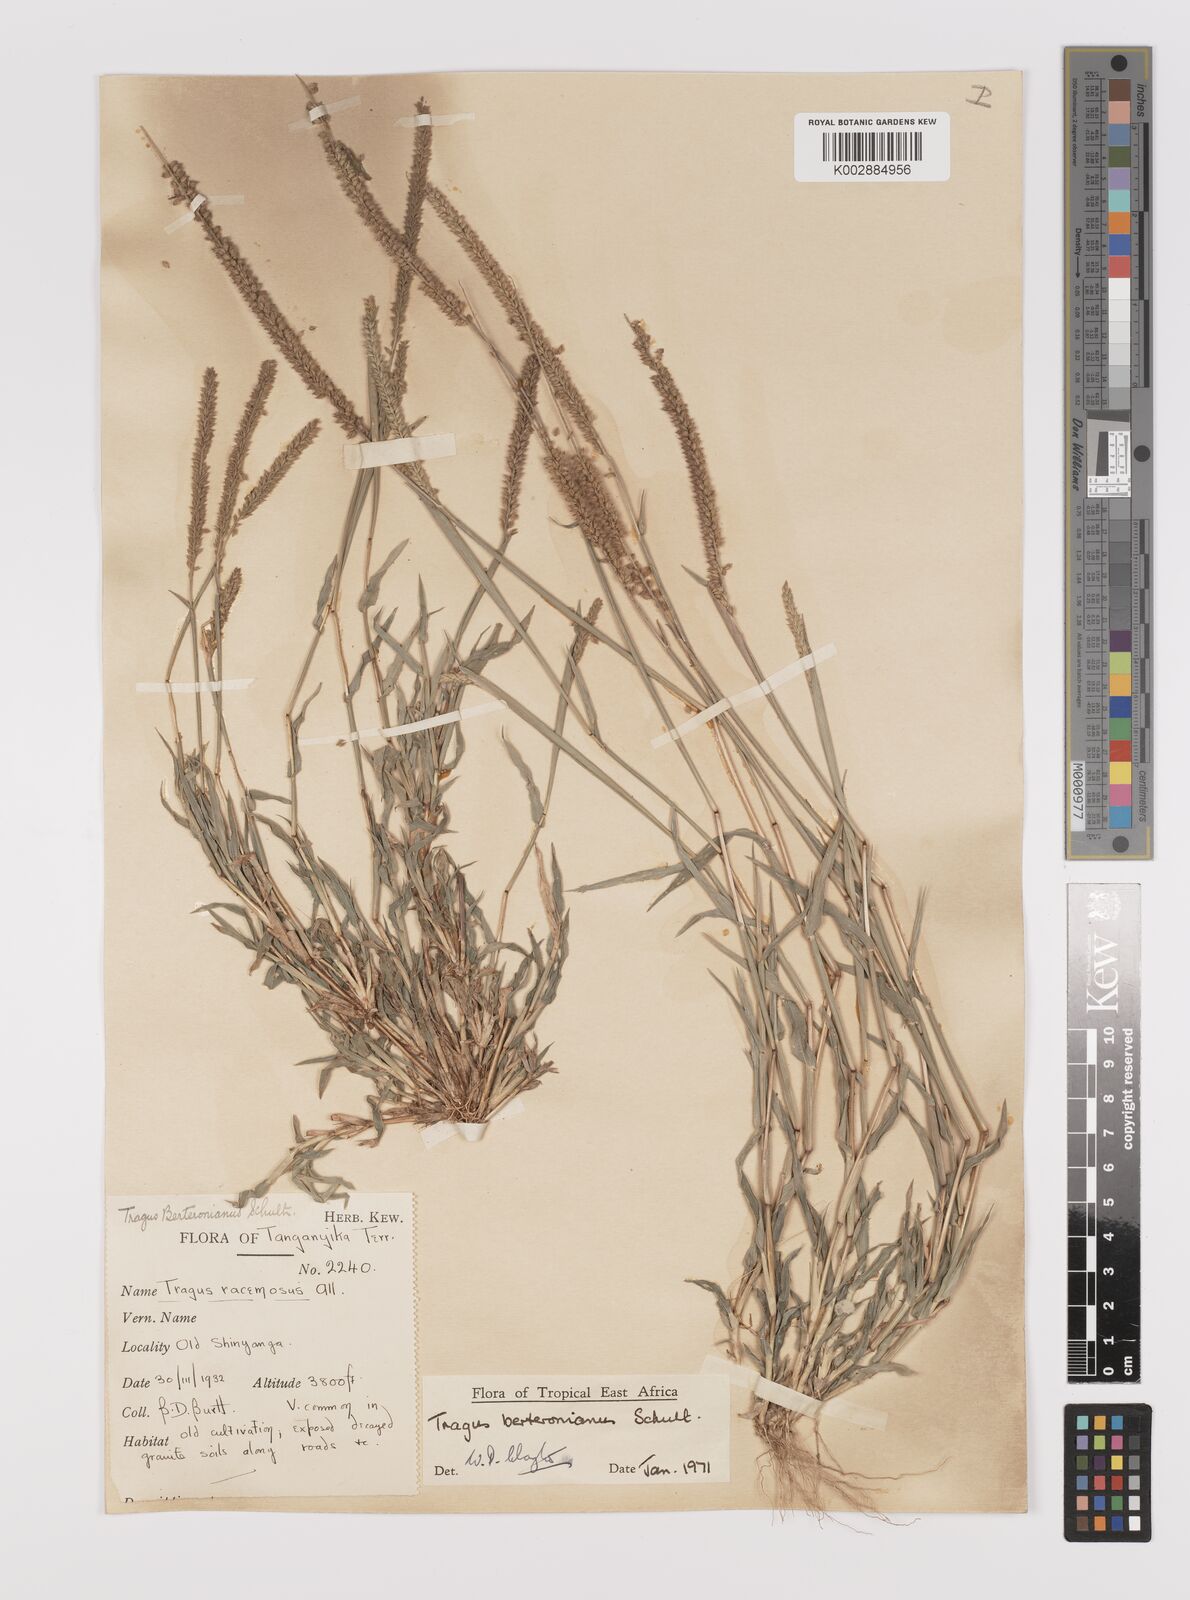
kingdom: Plantae
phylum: Tracheophyta
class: Liliopsida
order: Poales
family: Poaceae
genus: Tragus
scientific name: Tragus berteronianus
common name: African bur-grass
